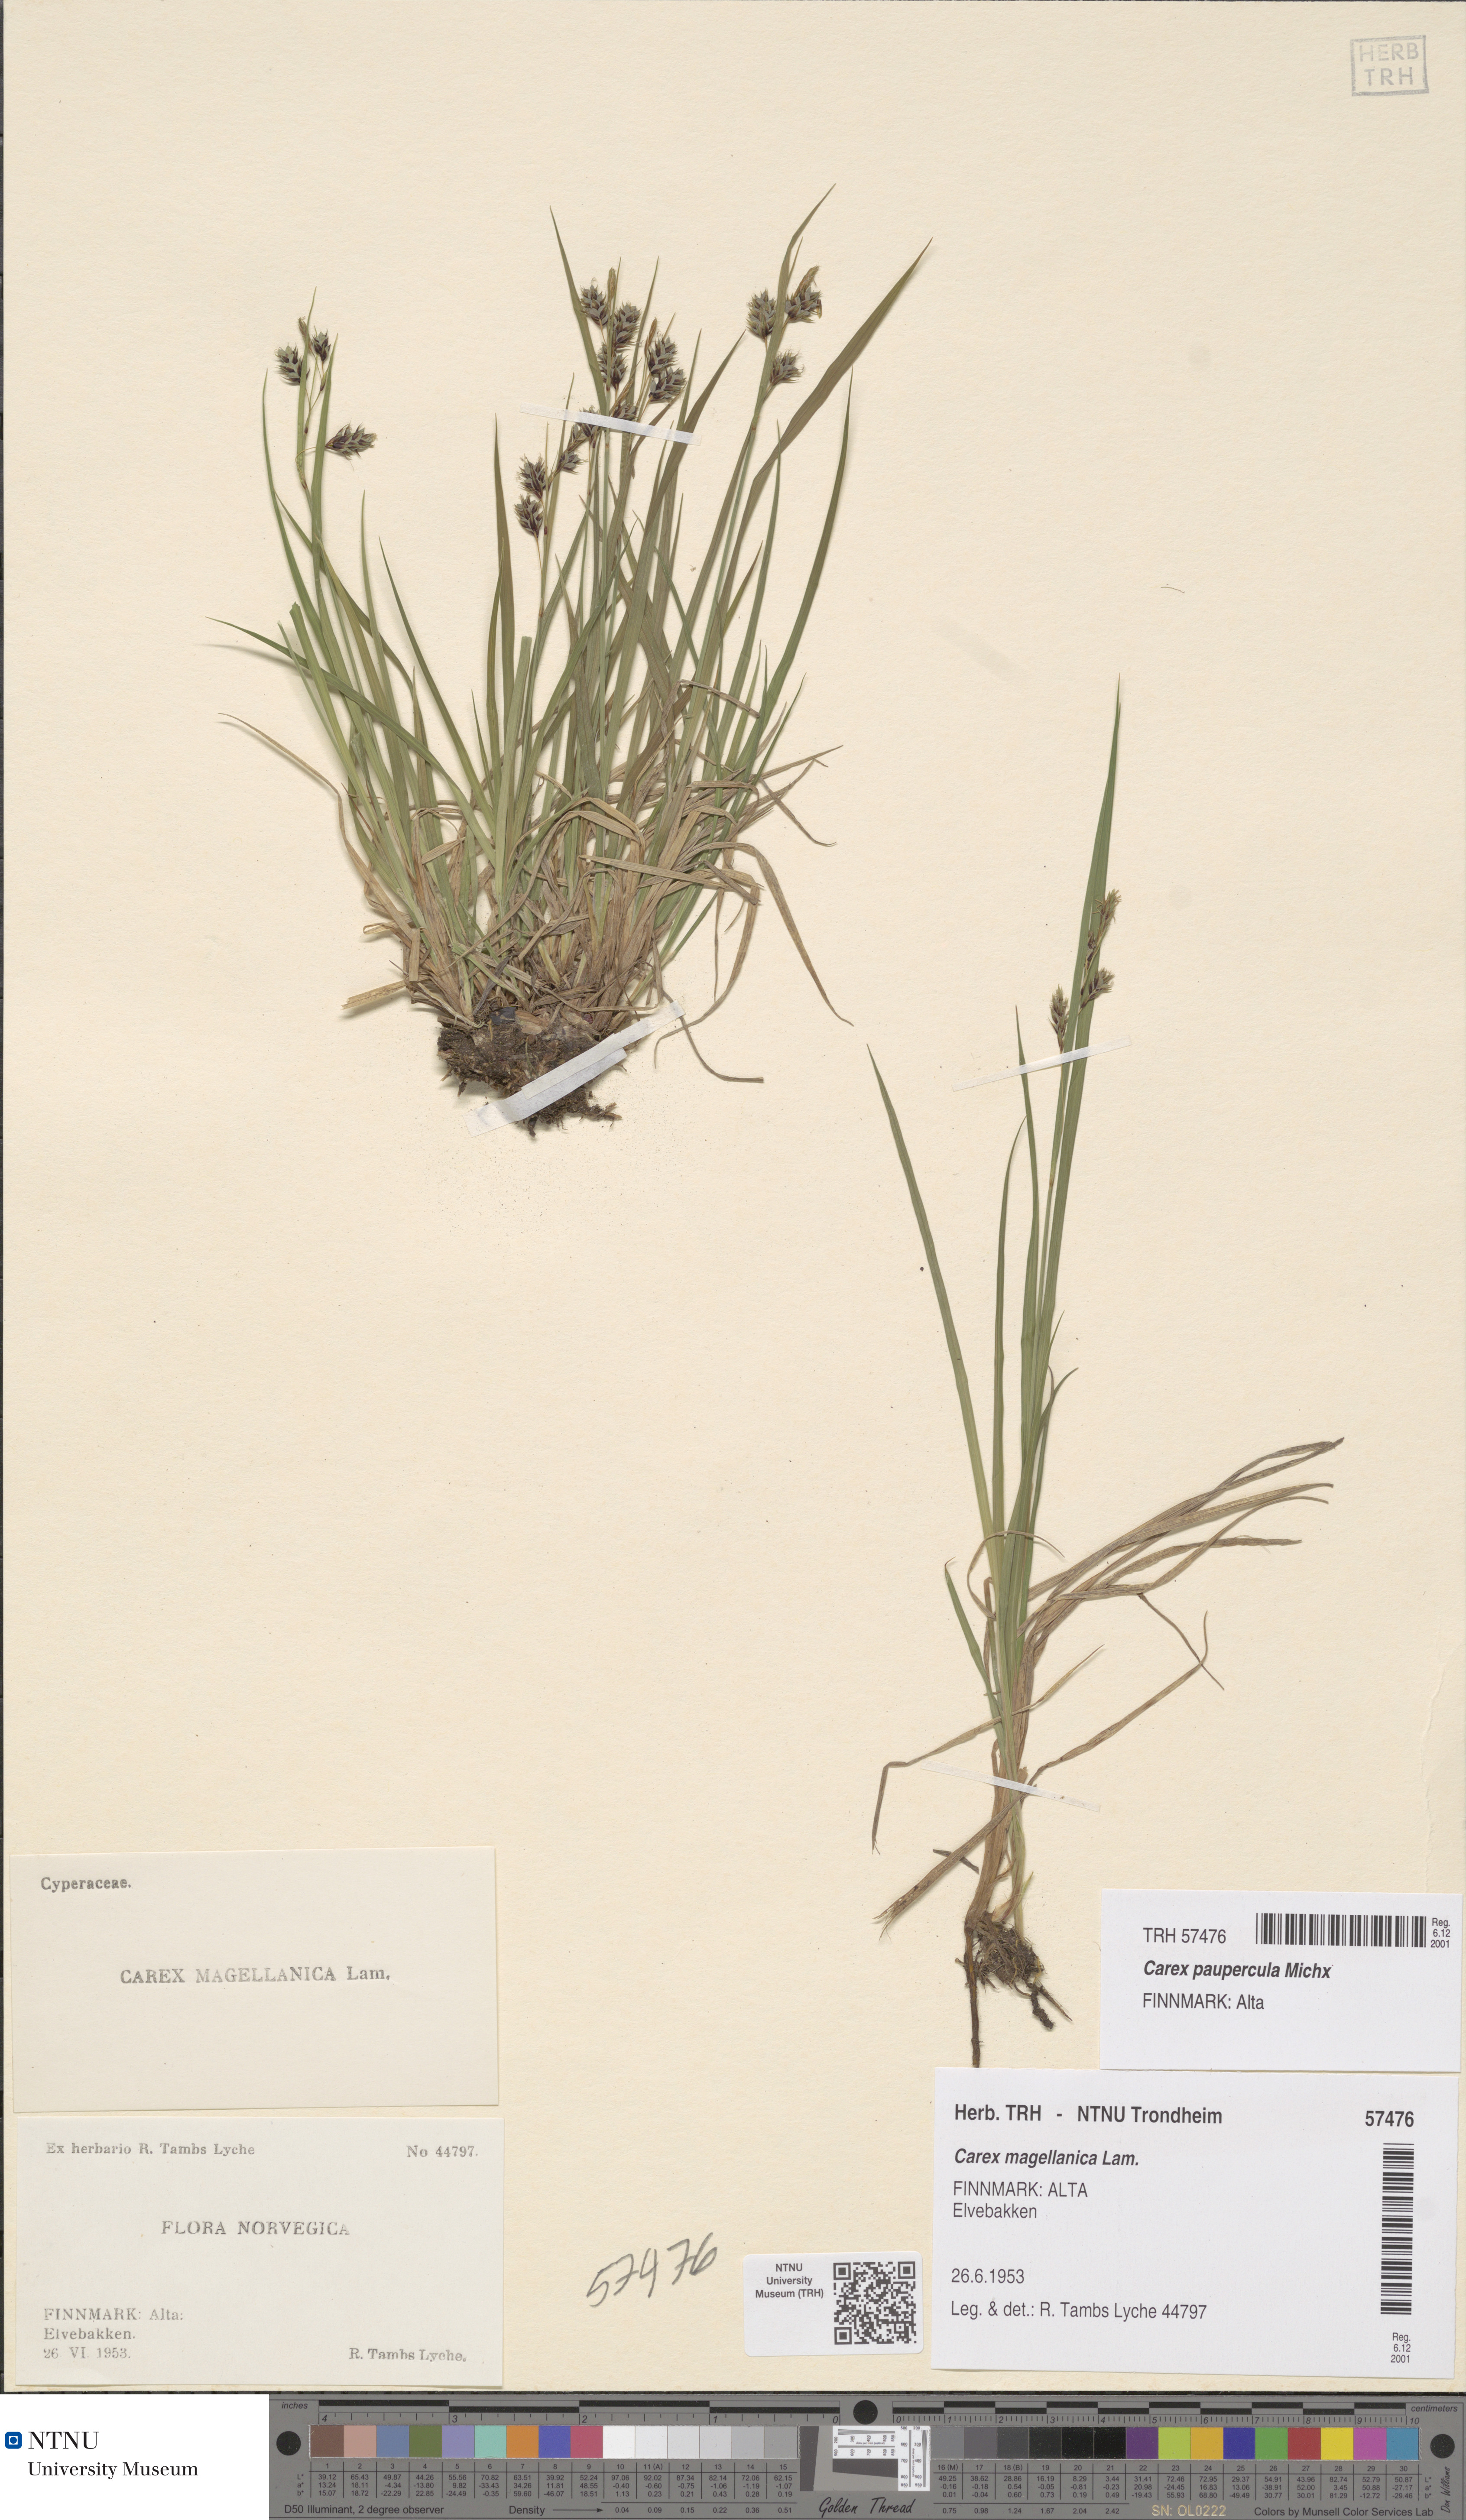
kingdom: Plantae
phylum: Tracheophyta
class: Liliopsida
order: Poales
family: Cyperaceae
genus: Carex
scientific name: Carex magellanica
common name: Bog sedge
